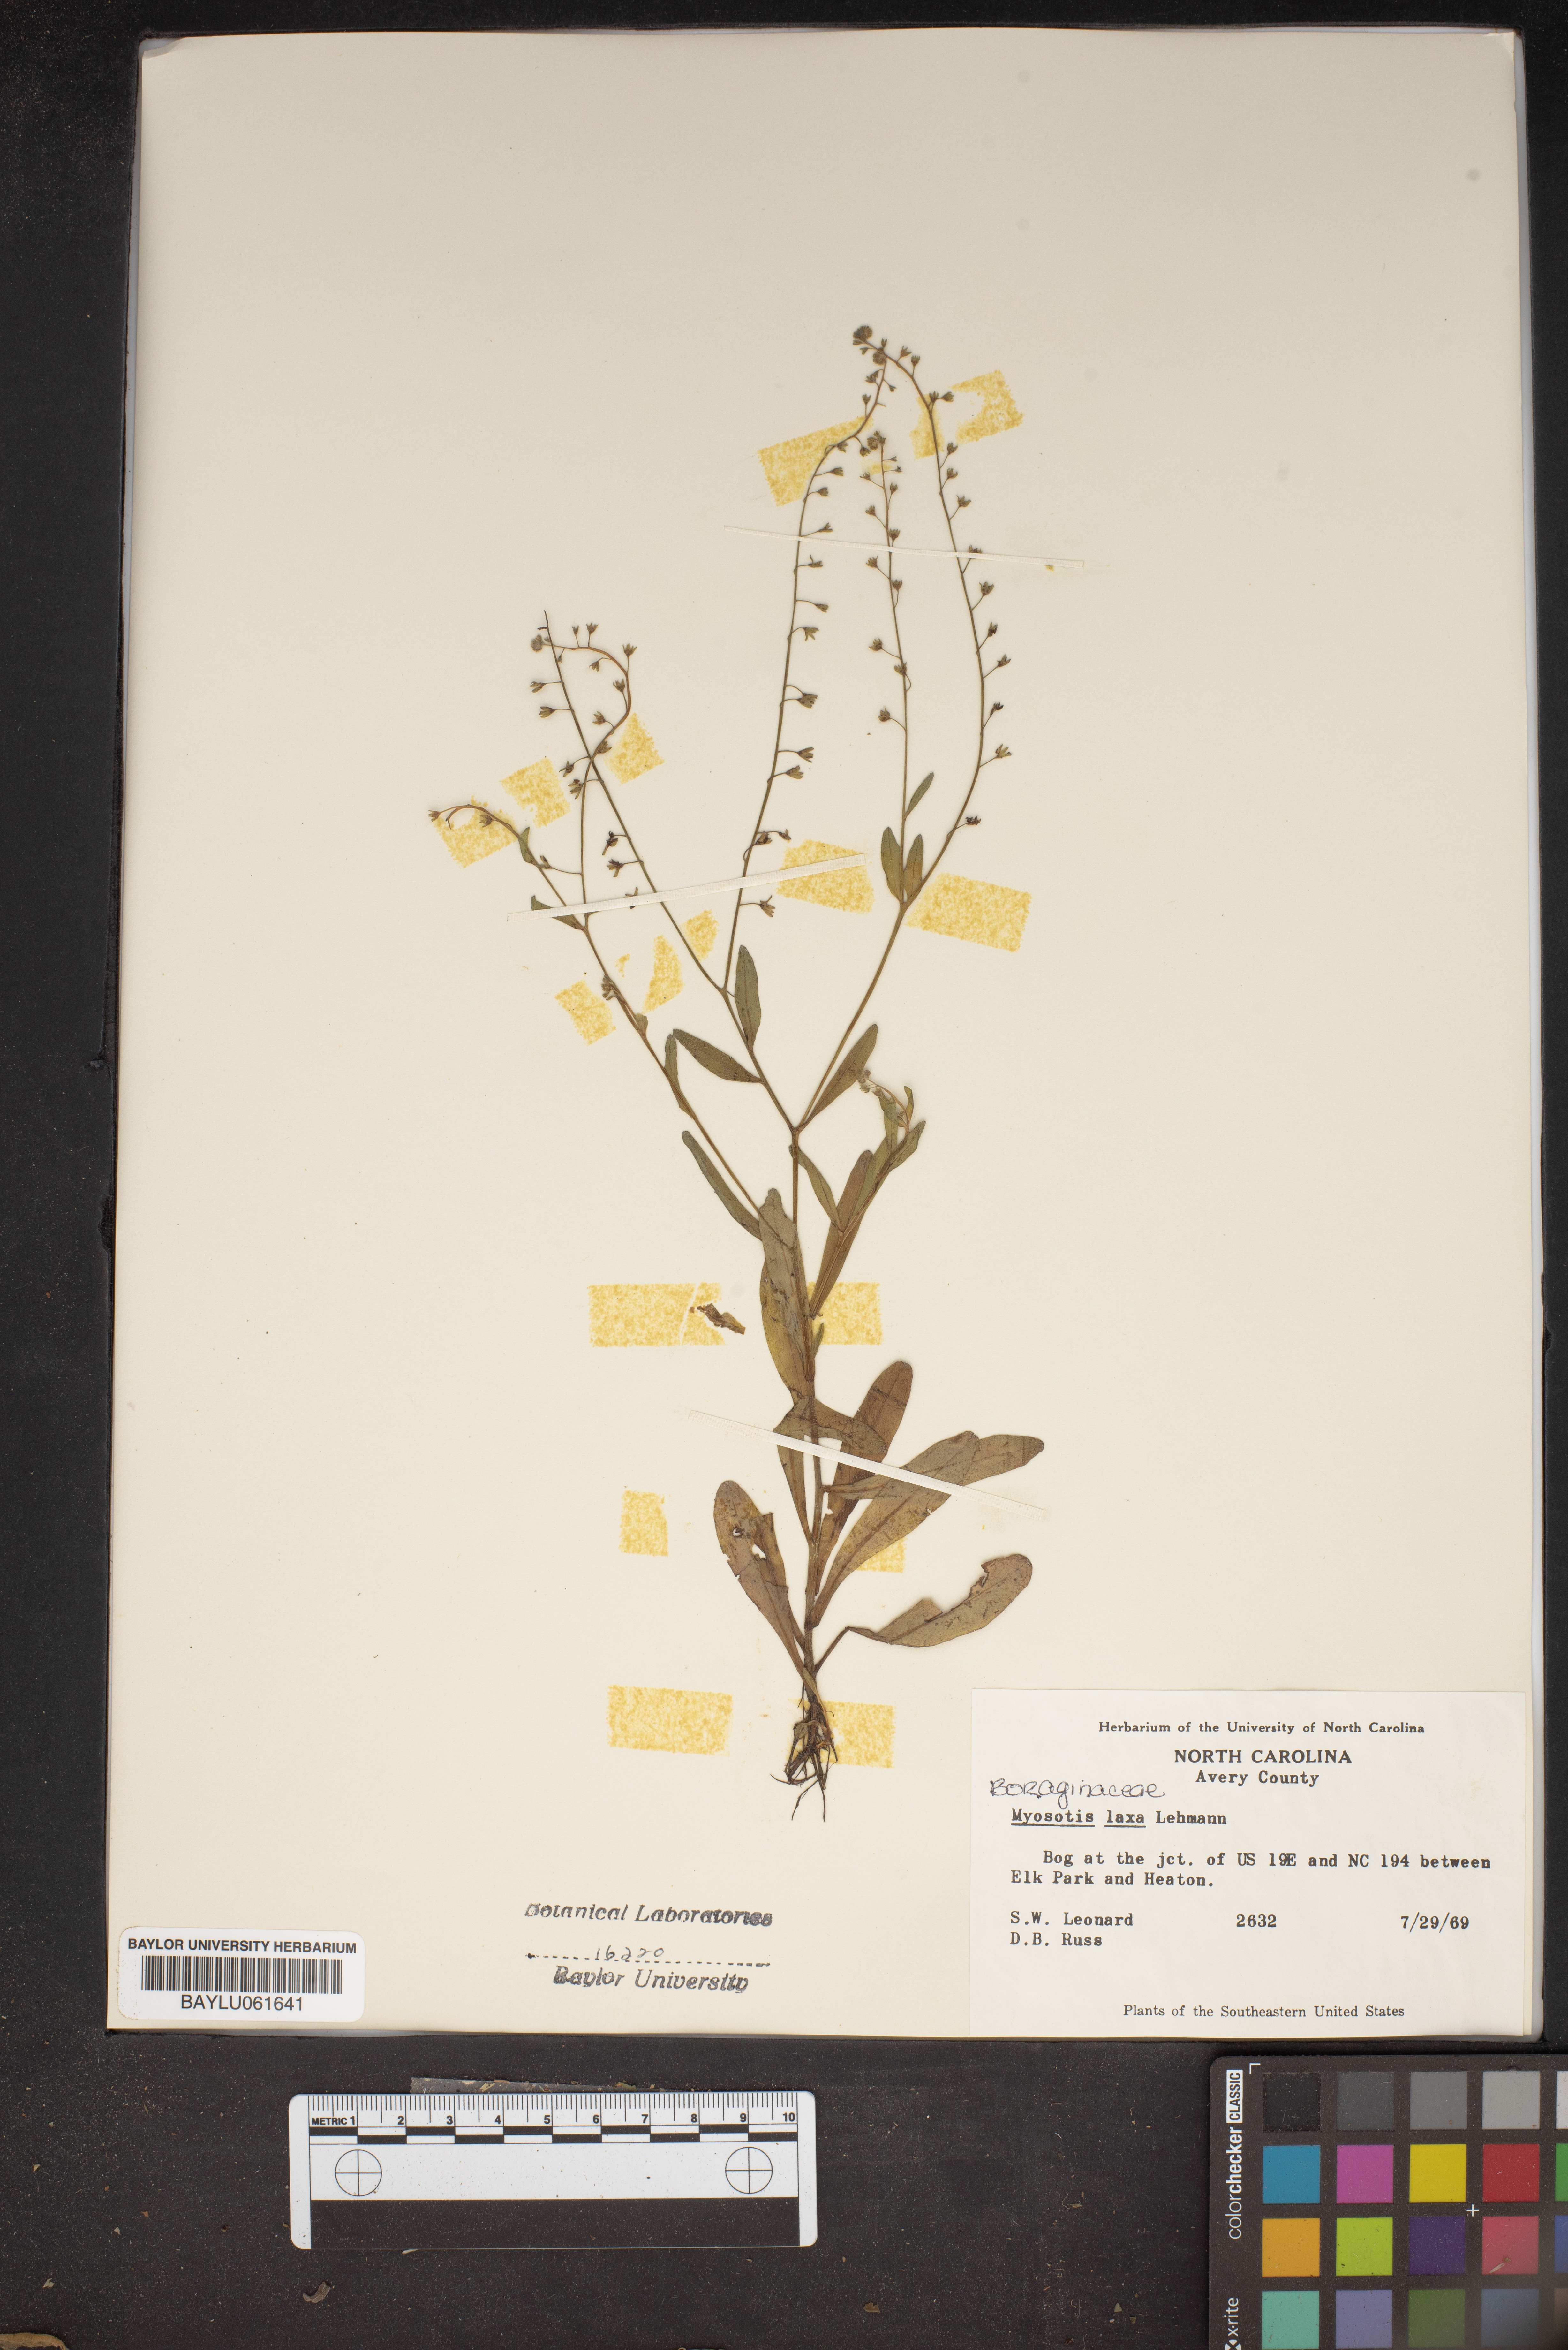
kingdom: Plantae
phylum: Tracheophyta
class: Magnoliopsida
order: Boraginales
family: Boraginaceae
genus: Myosotis
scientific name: Myosotis laxa
